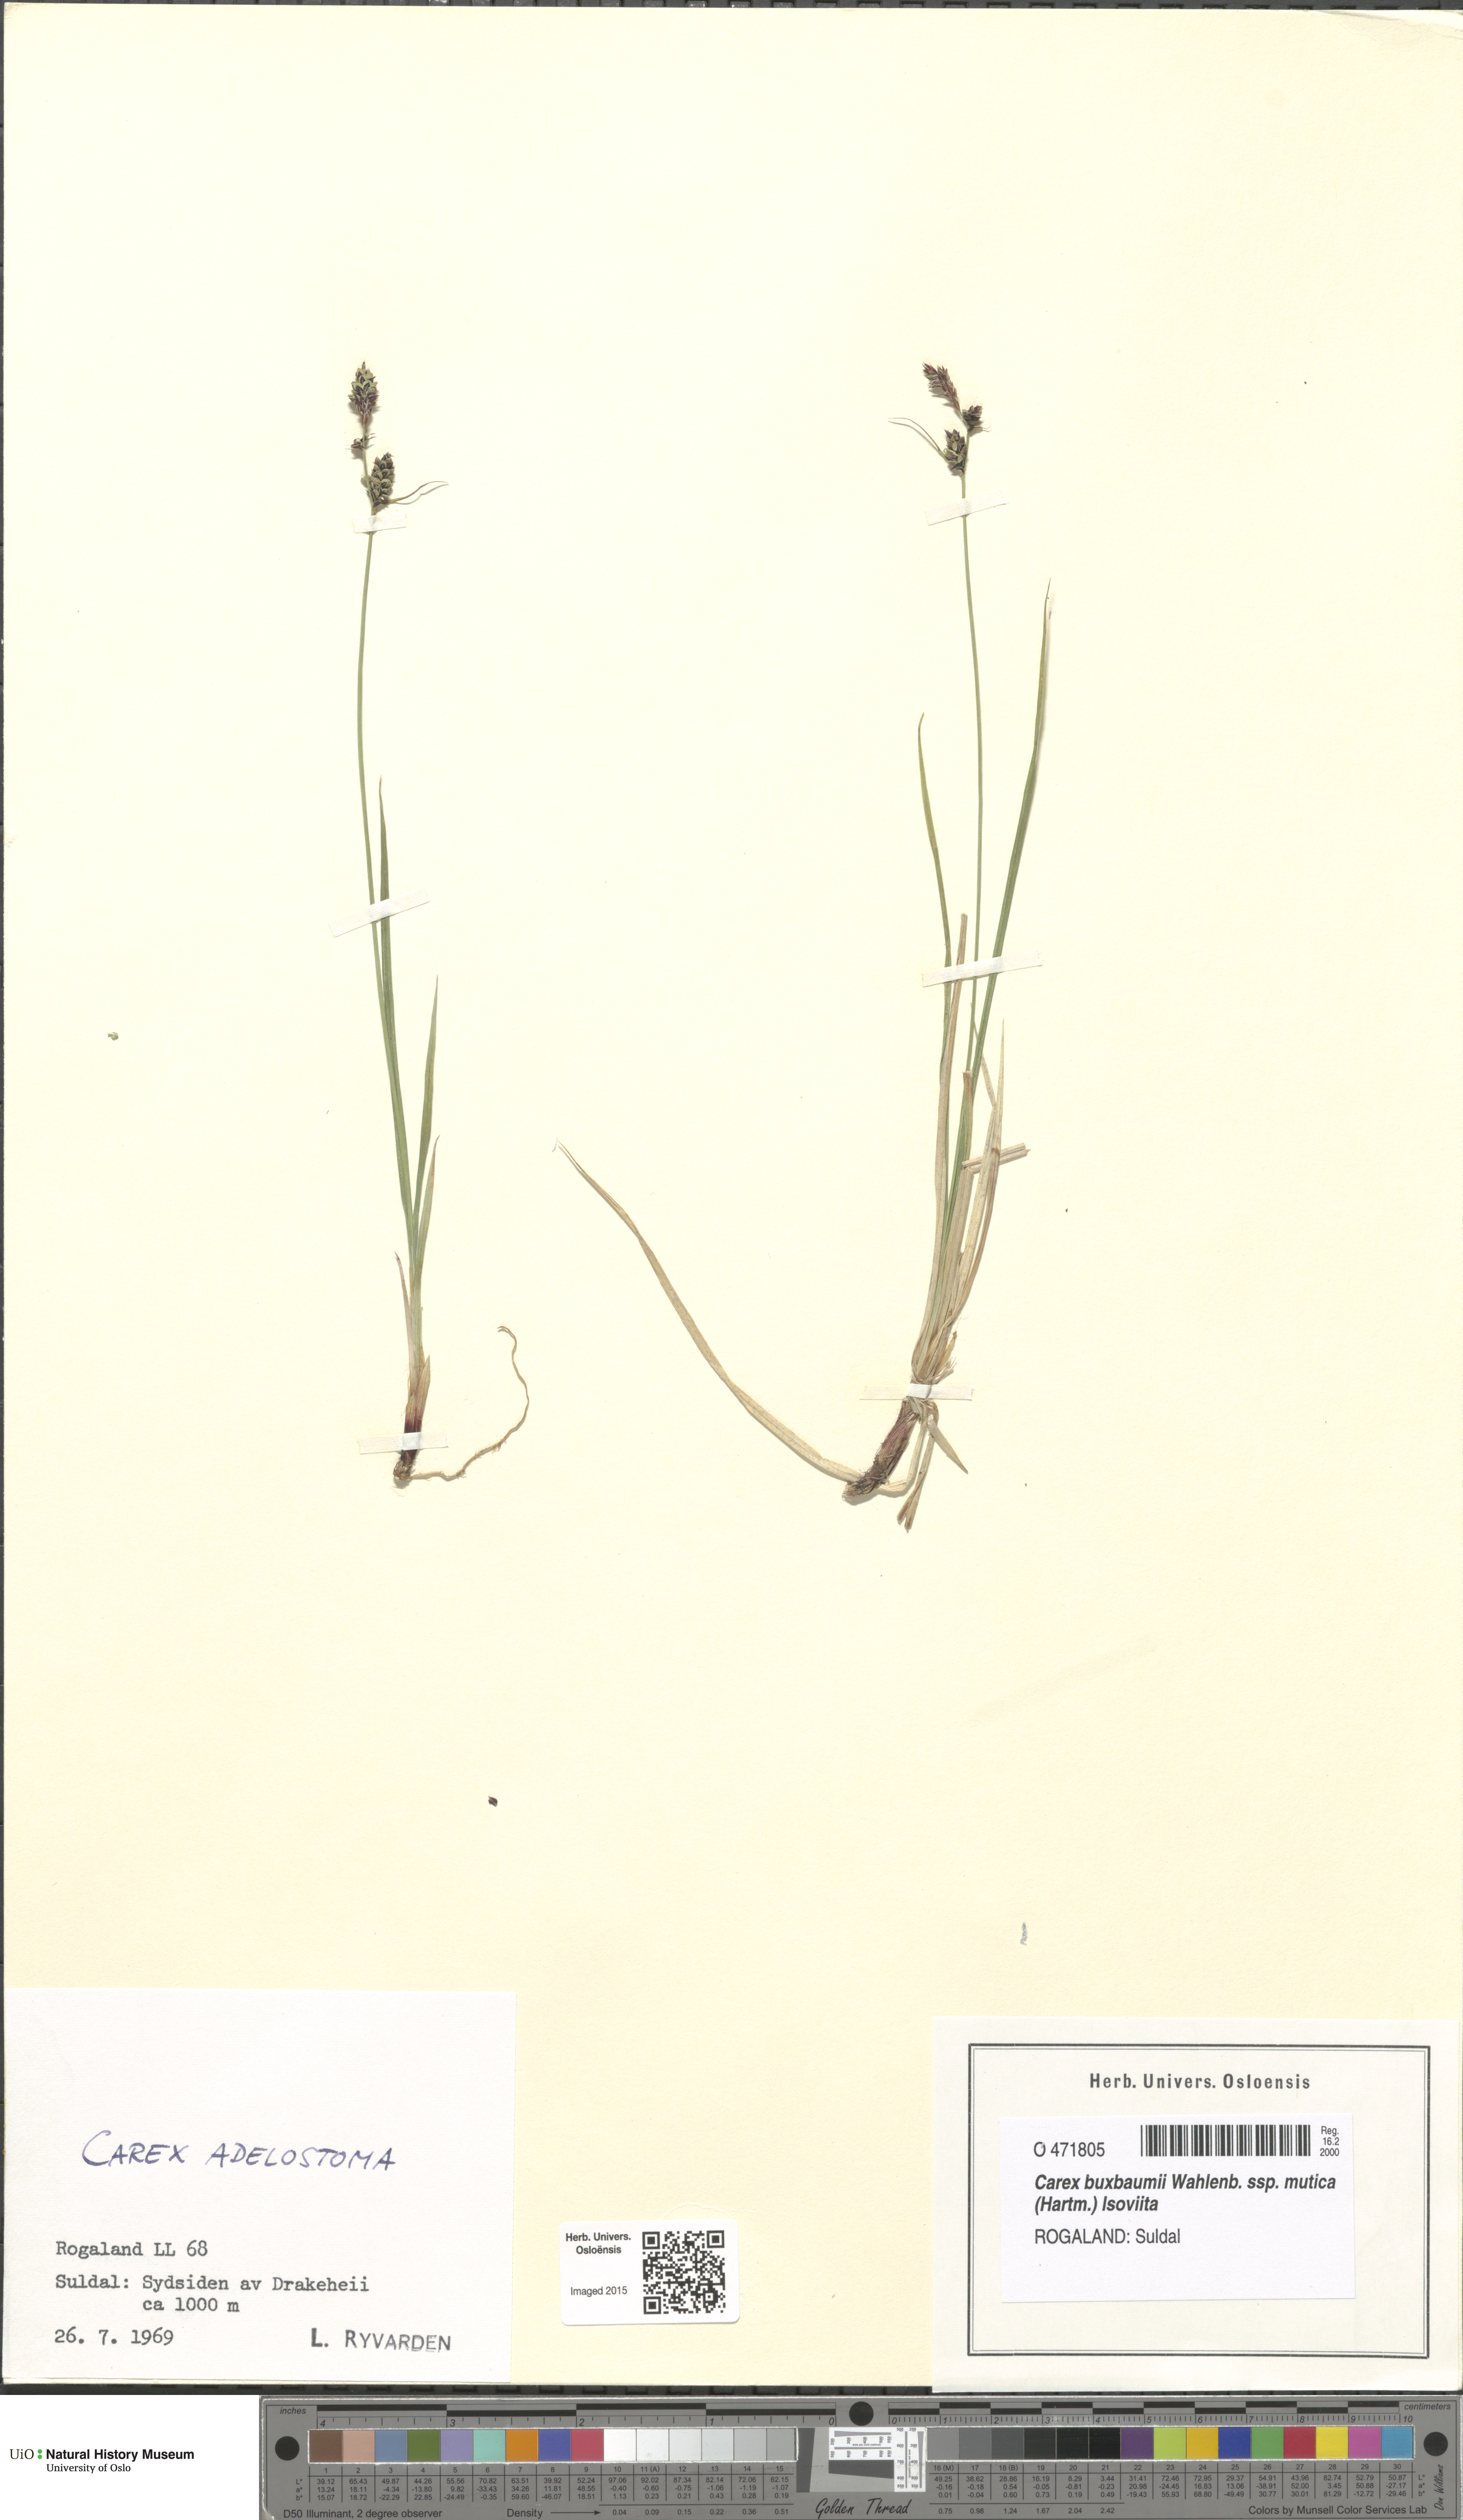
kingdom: Plantae
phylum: Tracheophyta
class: Liliopsida
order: Poales
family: Cyperaceae
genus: Carex
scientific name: Carex adelostoma
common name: Circumpolar sedge
